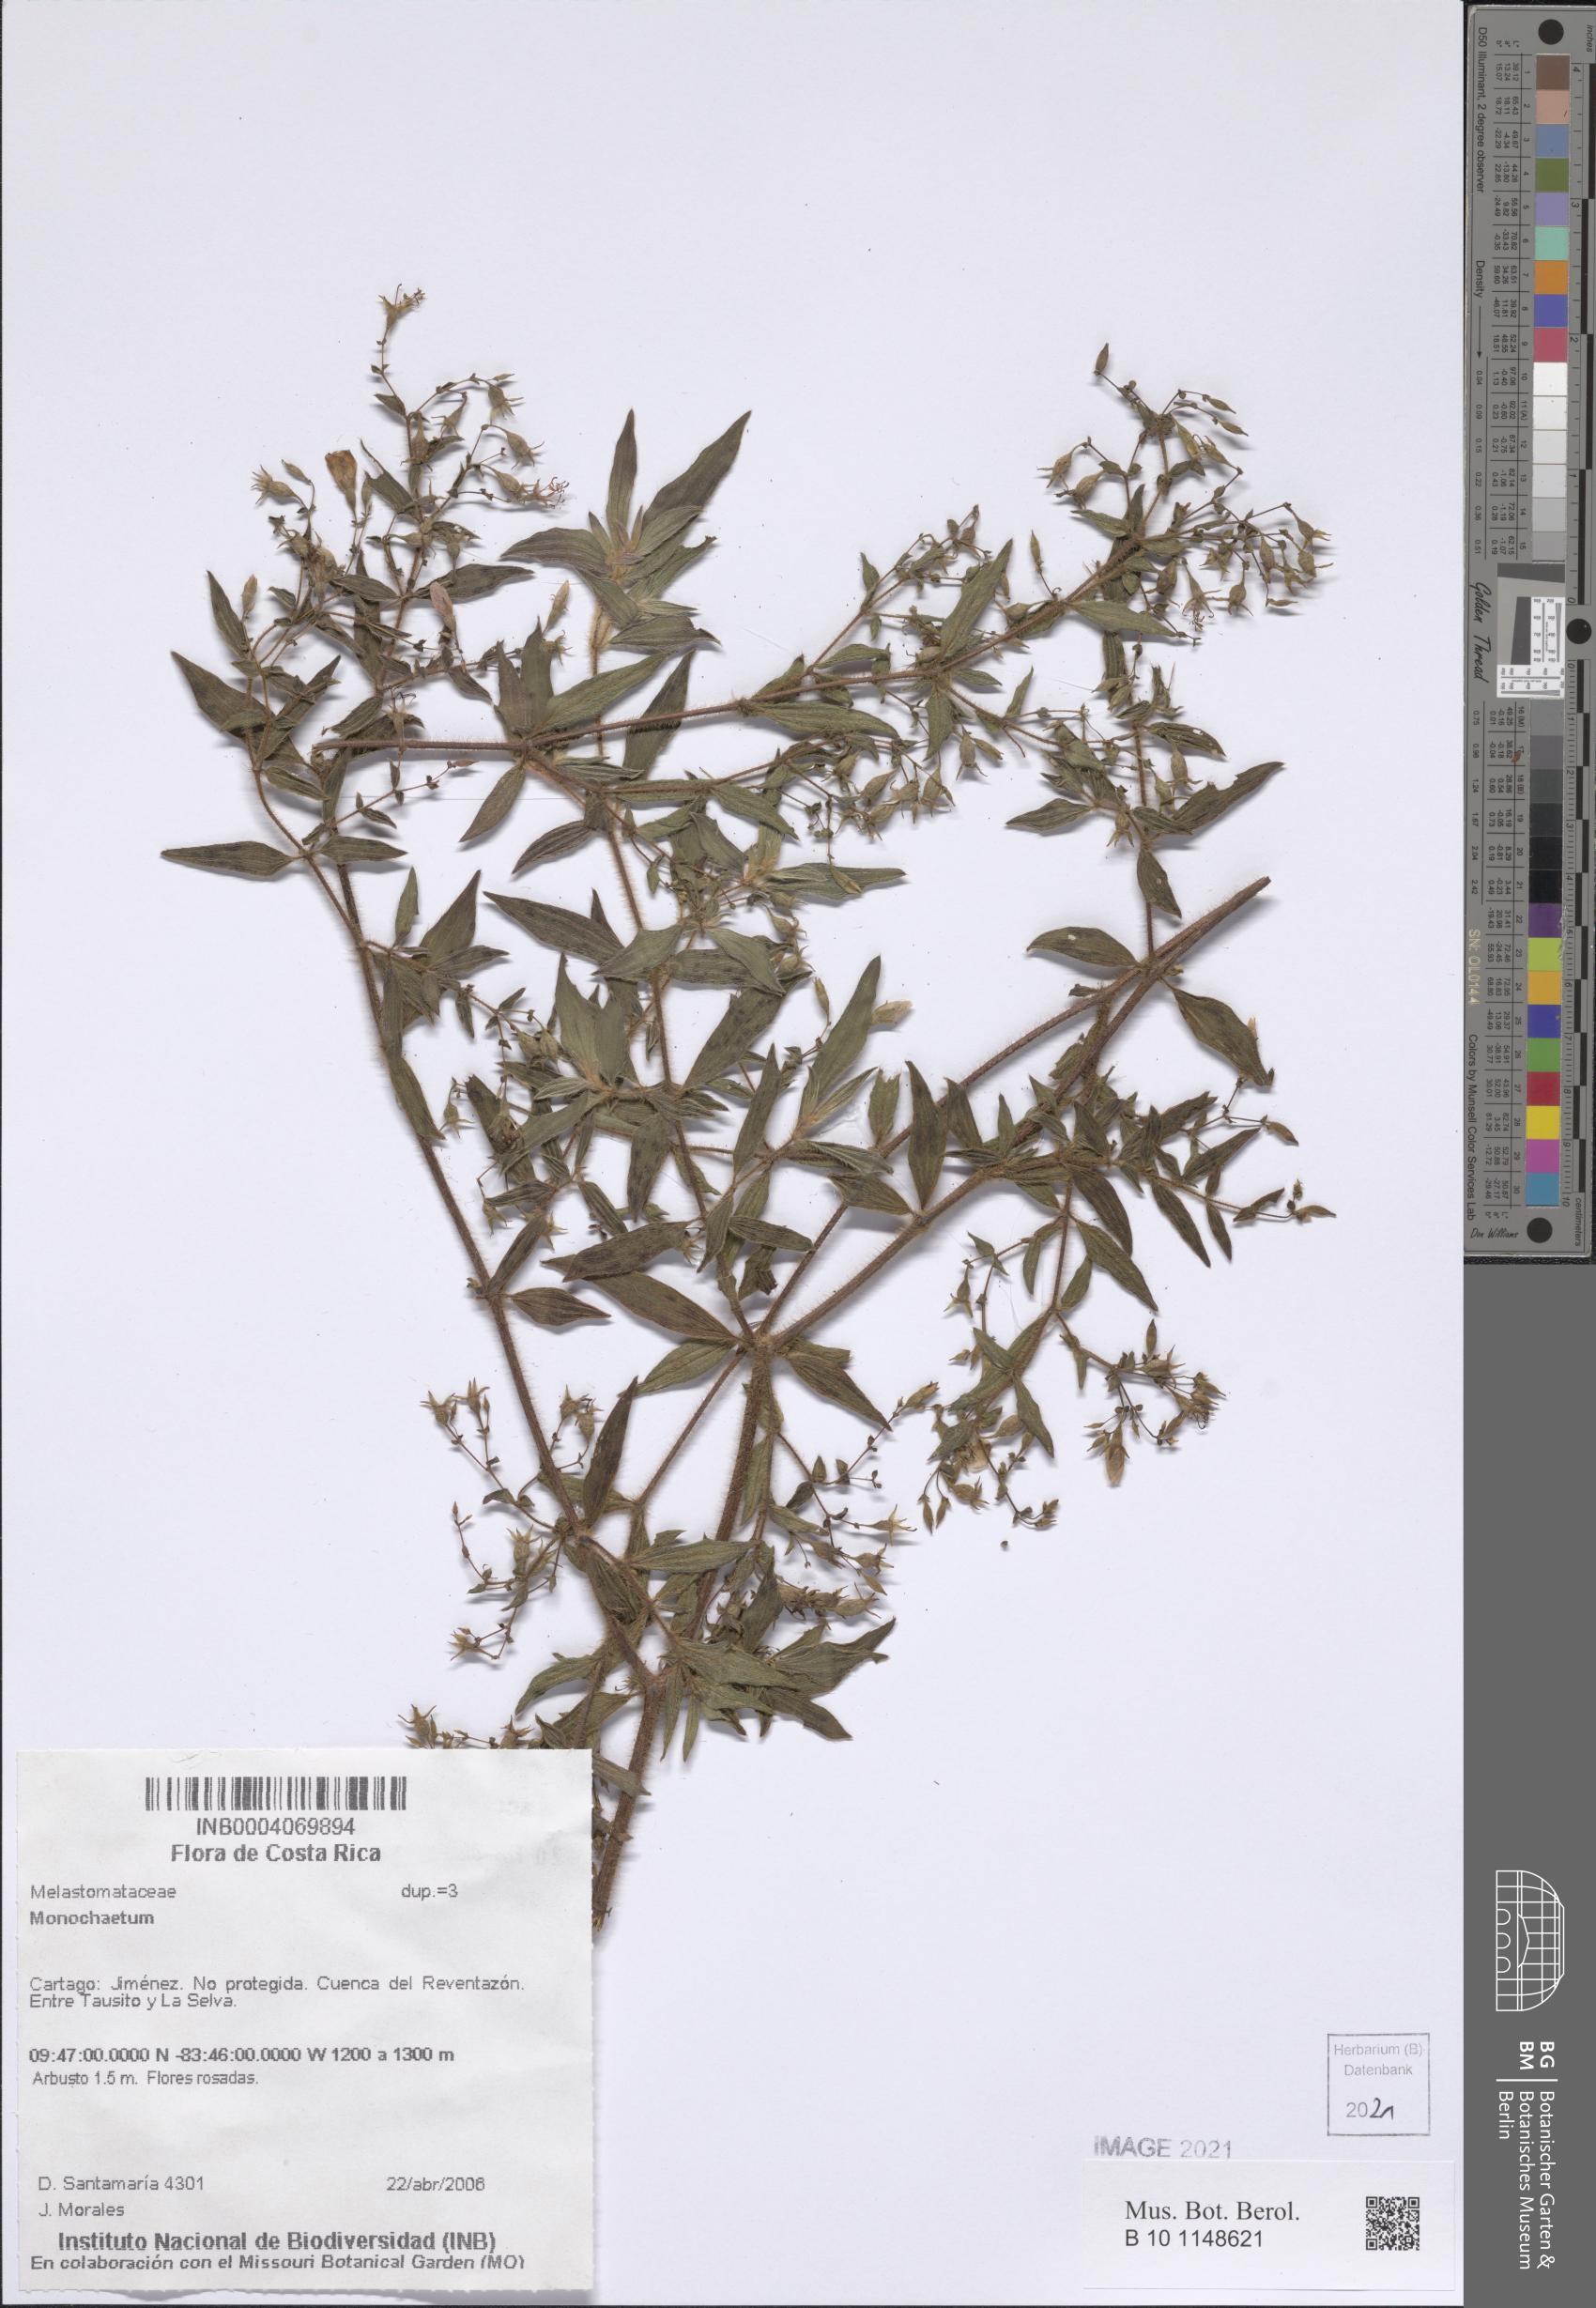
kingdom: Plantae
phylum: Tracheophyta
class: Magnoliopsida
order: Myrtales
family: Melastomataceae
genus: Monochaetum
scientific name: Monochaetum
